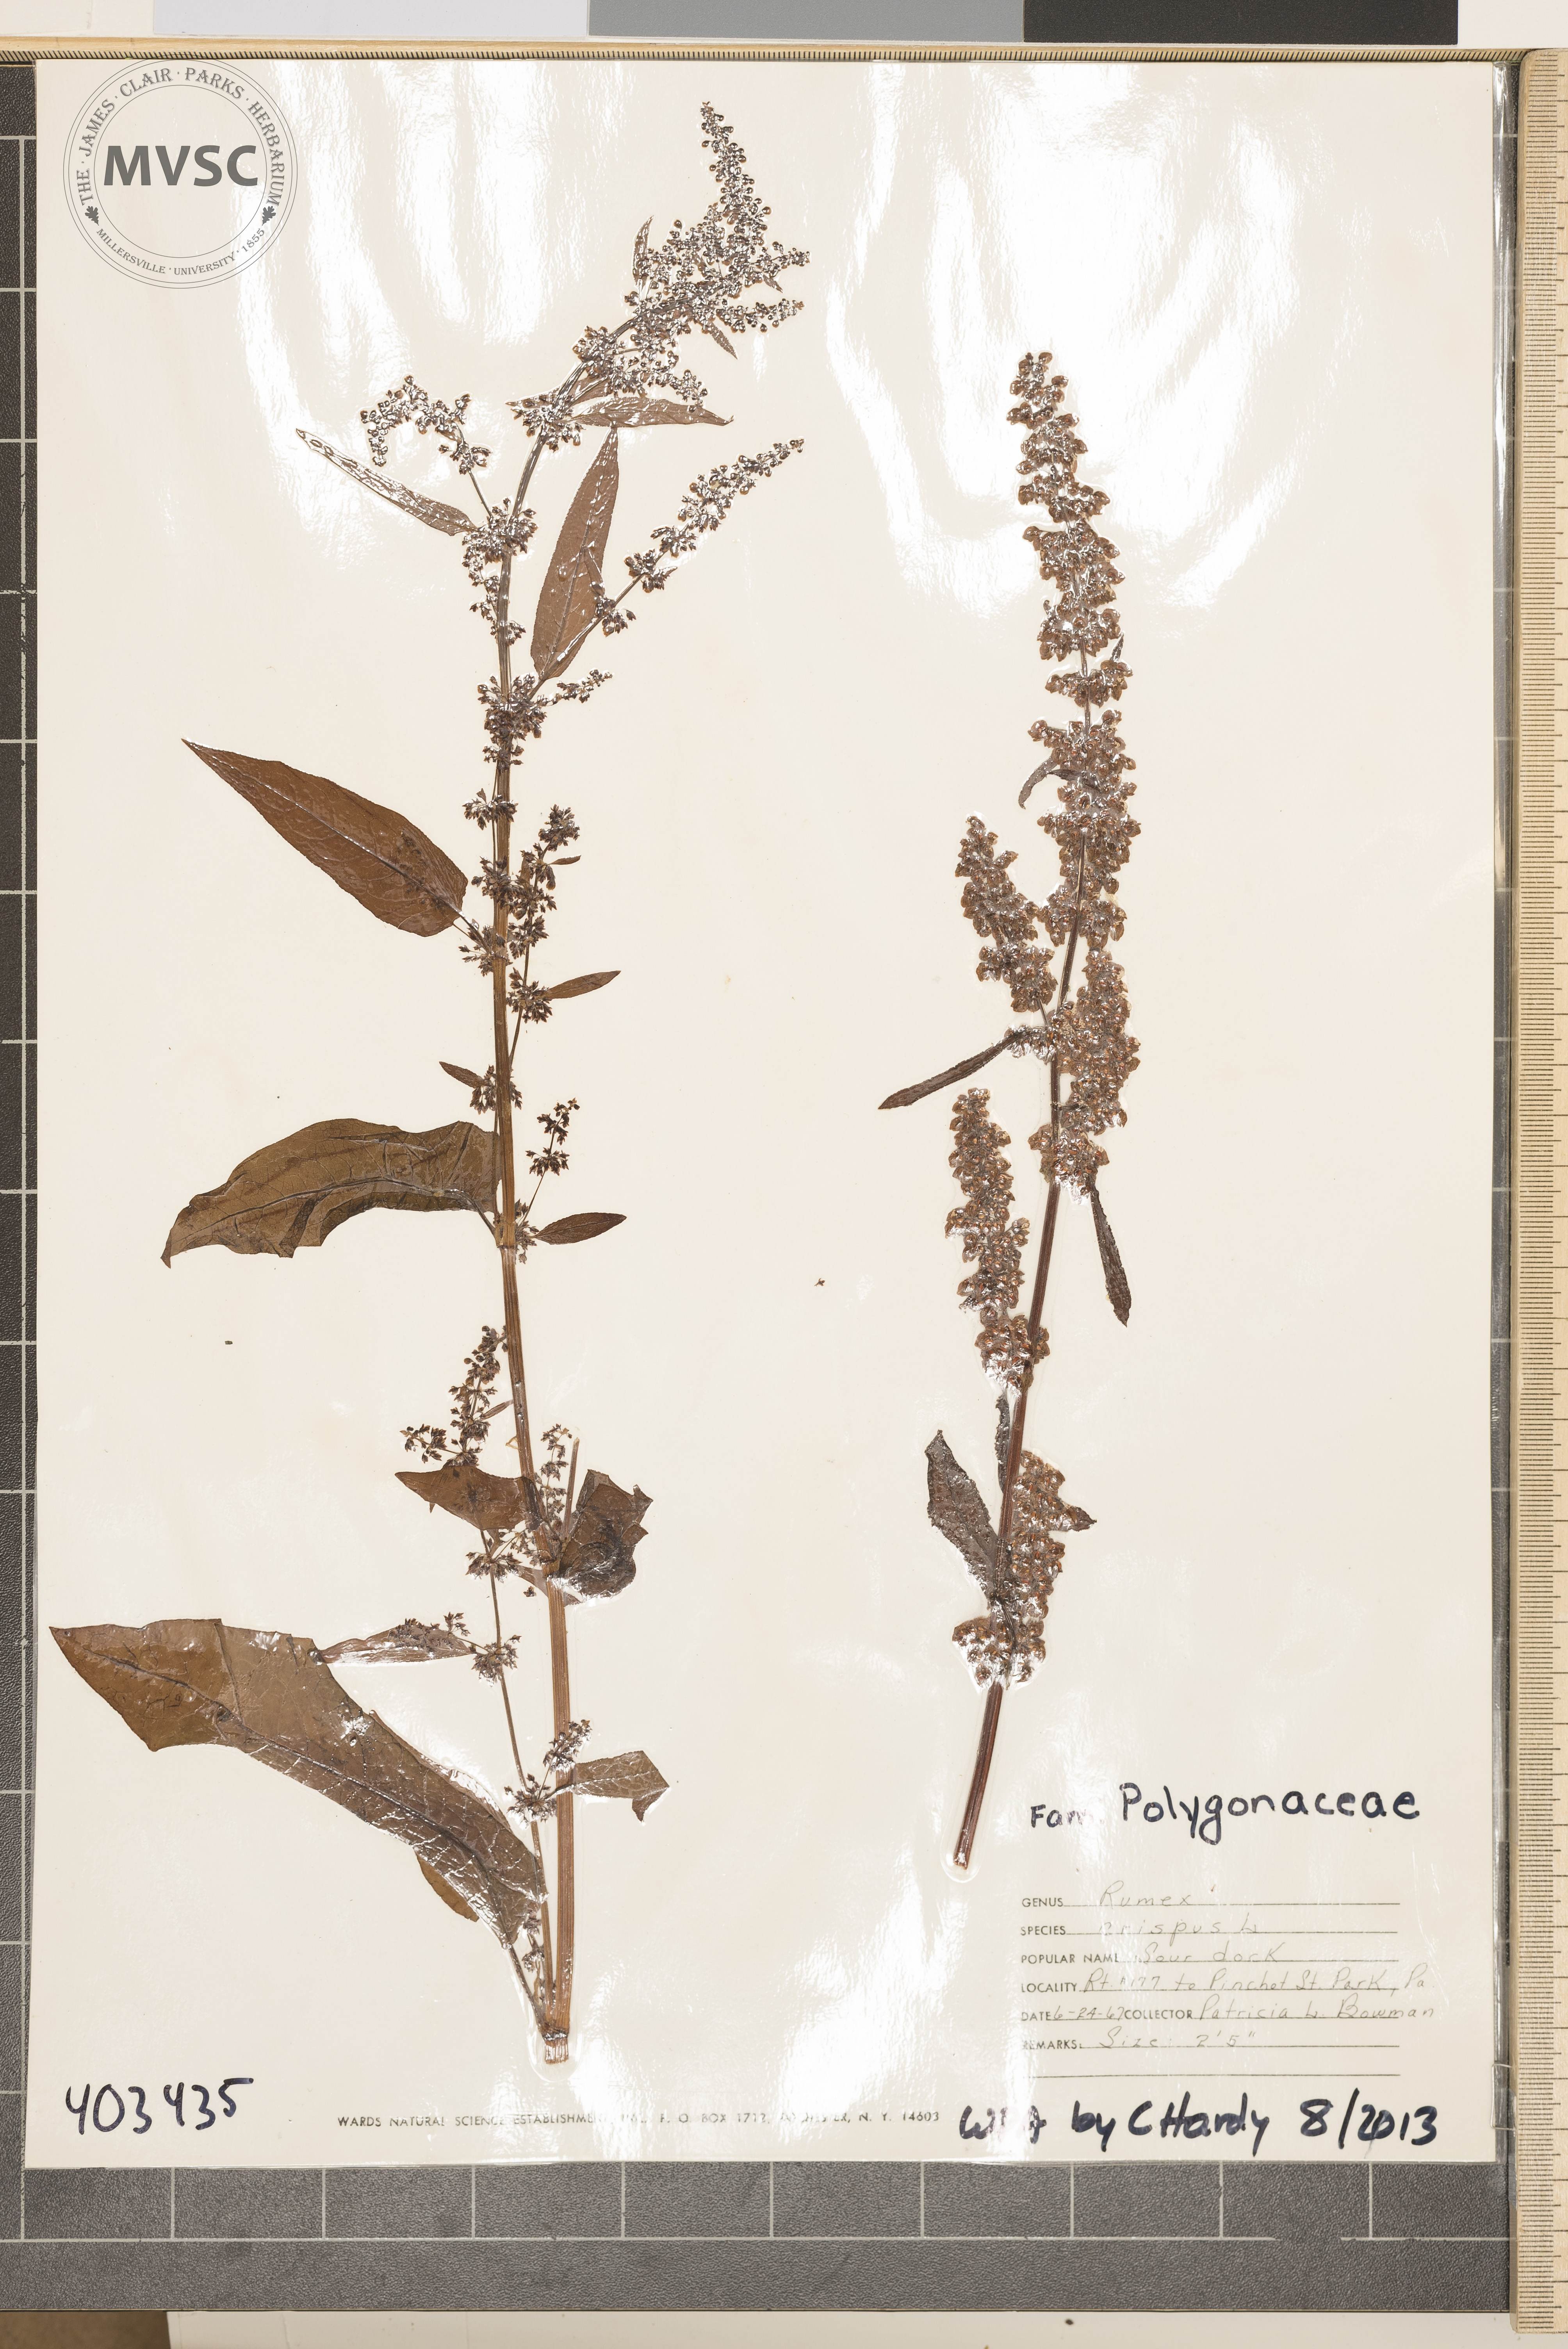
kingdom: Plantae
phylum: Tracheophyta
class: Magnoliopsida
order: Caryophyllales
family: Polygonaceae
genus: Rumex
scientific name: Rumex crispus
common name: Sour Dock
